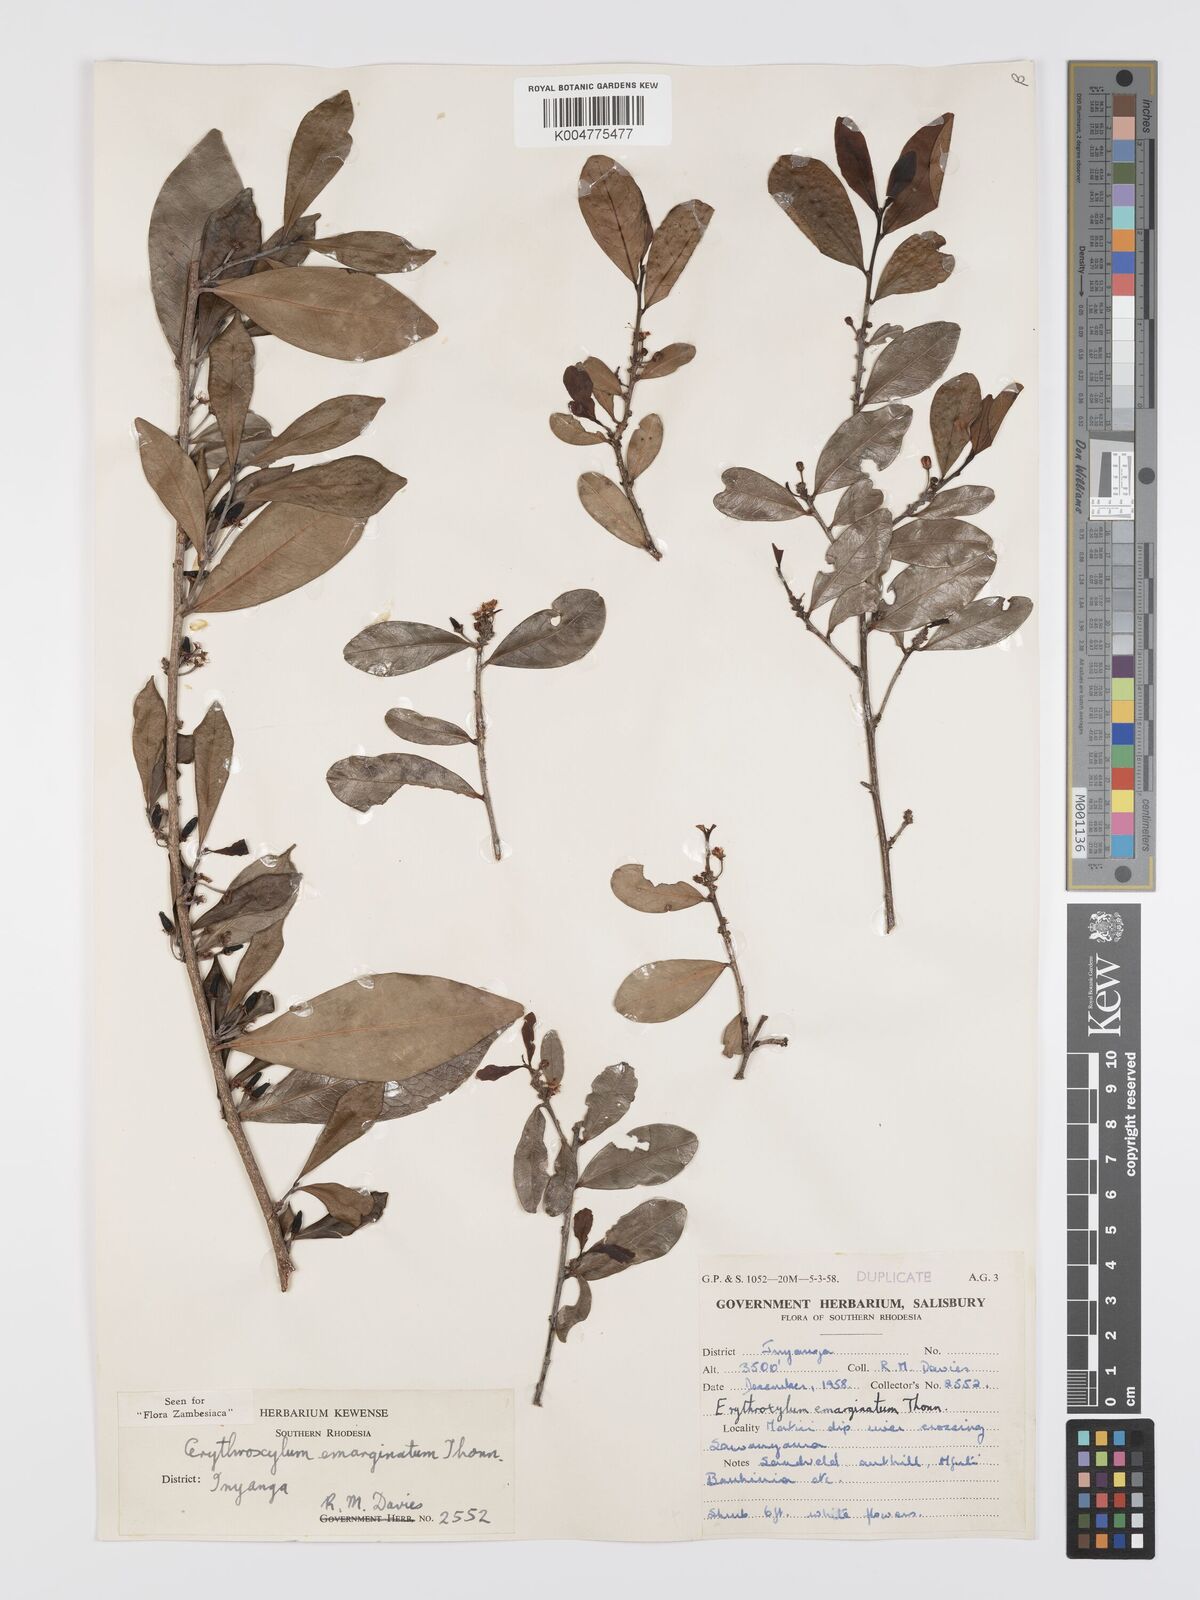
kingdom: Plantae
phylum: Tracheophyta
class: Magnoliopsida
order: Malpighiales
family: Erythroxylaceae
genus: Erythroxylum
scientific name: Erythroxylum emarginatum
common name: African coca-tree
